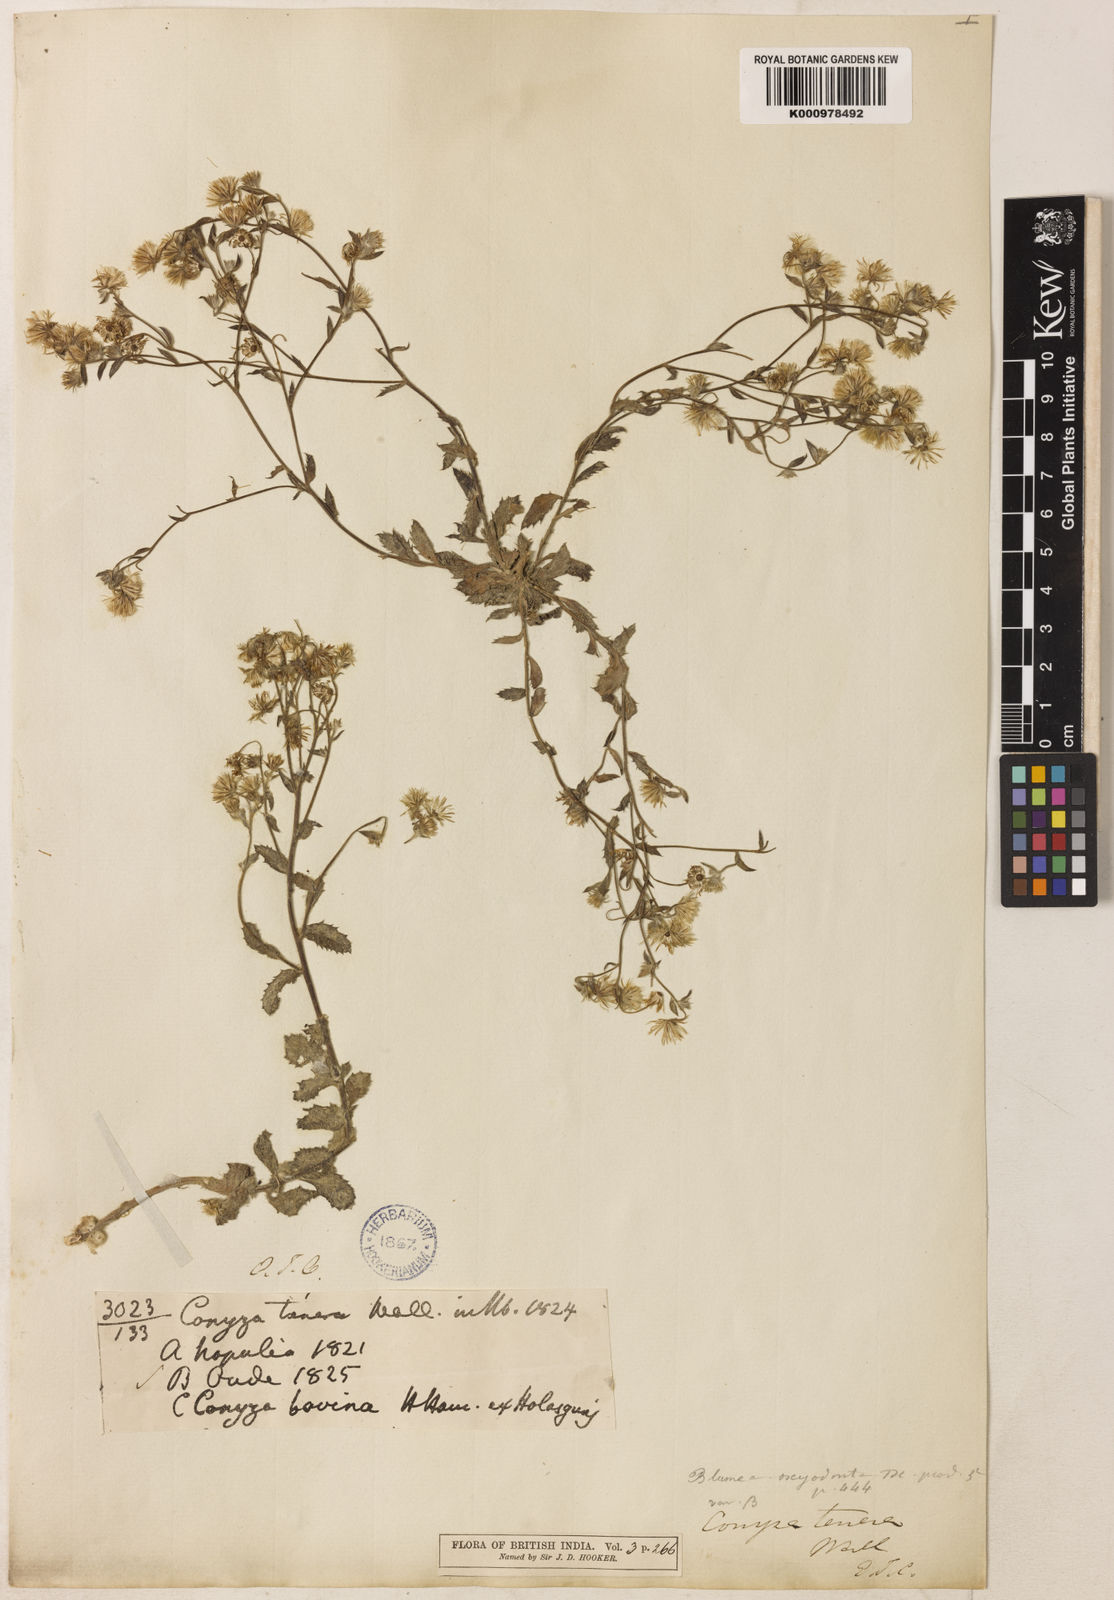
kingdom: Plantae
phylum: Tracheophyta
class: Magnoliopsida
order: Asterales
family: Asteraceae
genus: Blumea
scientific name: Blumea oxyodonta
